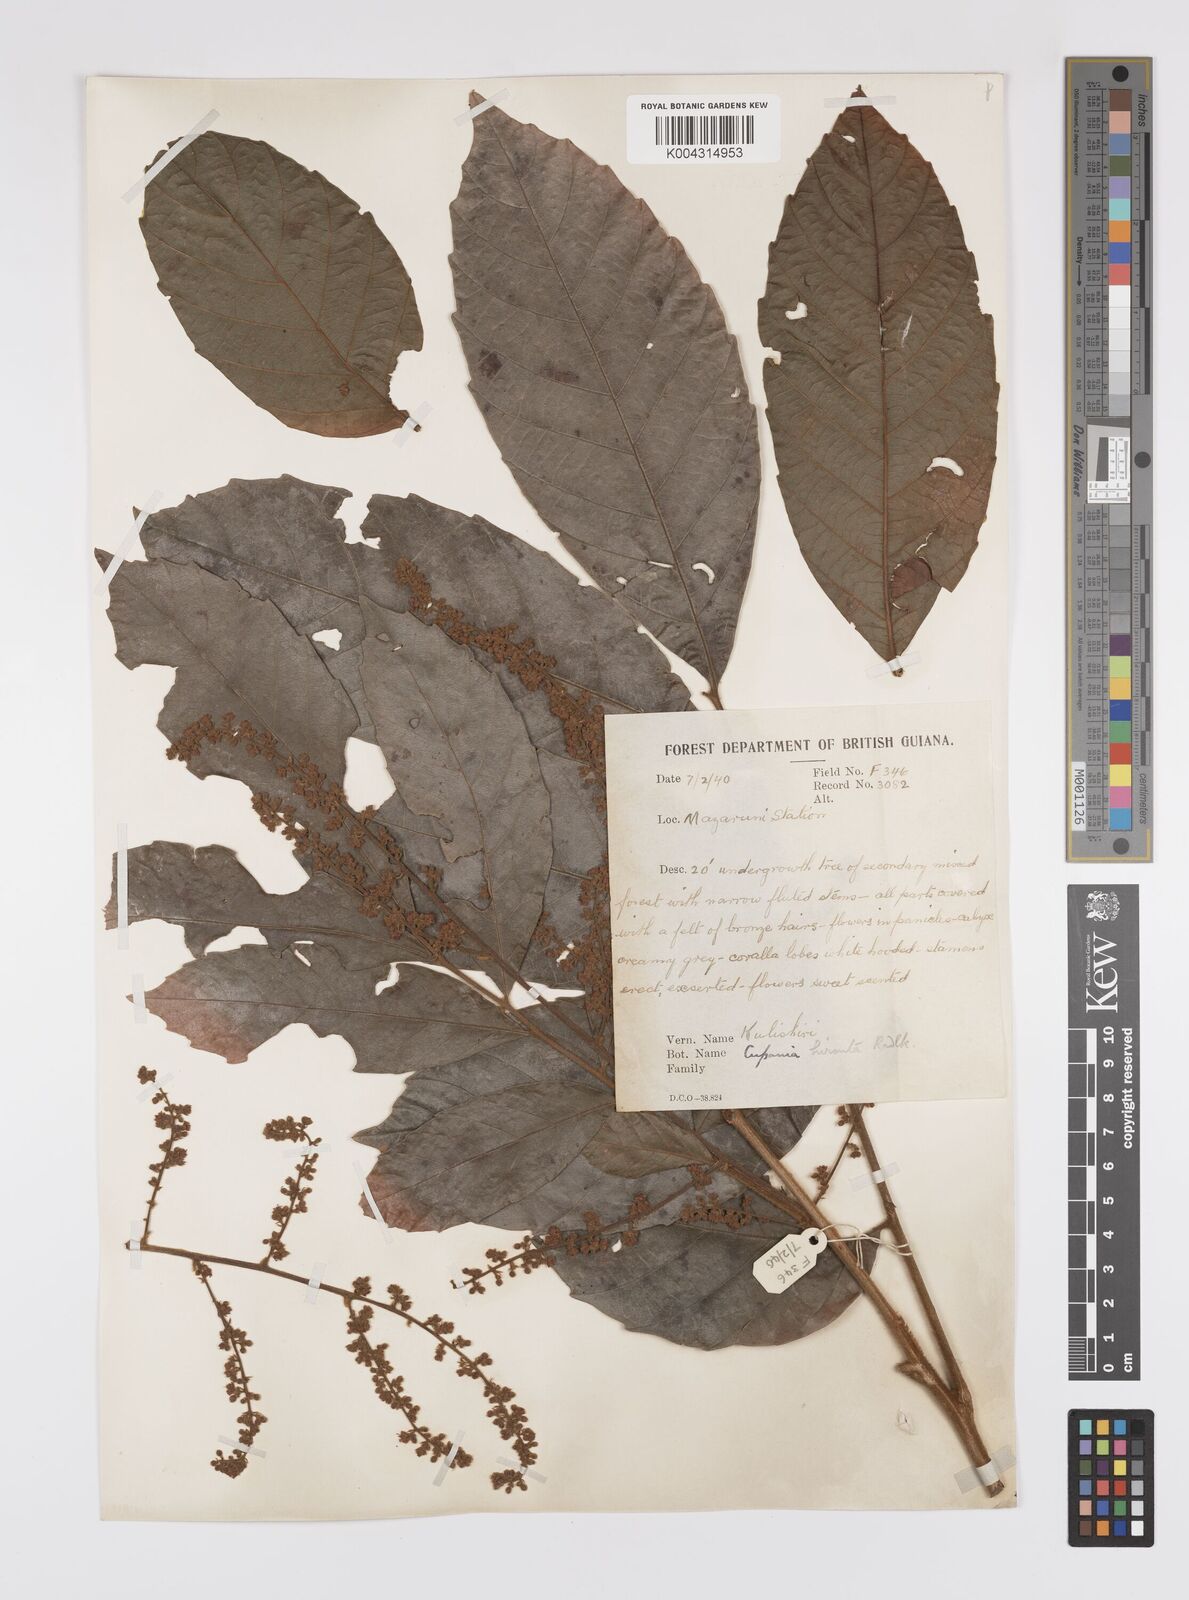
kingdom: Plantae
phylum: Tracheophyta
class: Magnoliopsida
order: Sapindales
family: Sapindaceae
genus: Cupania
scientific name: Cupania hirsuta
